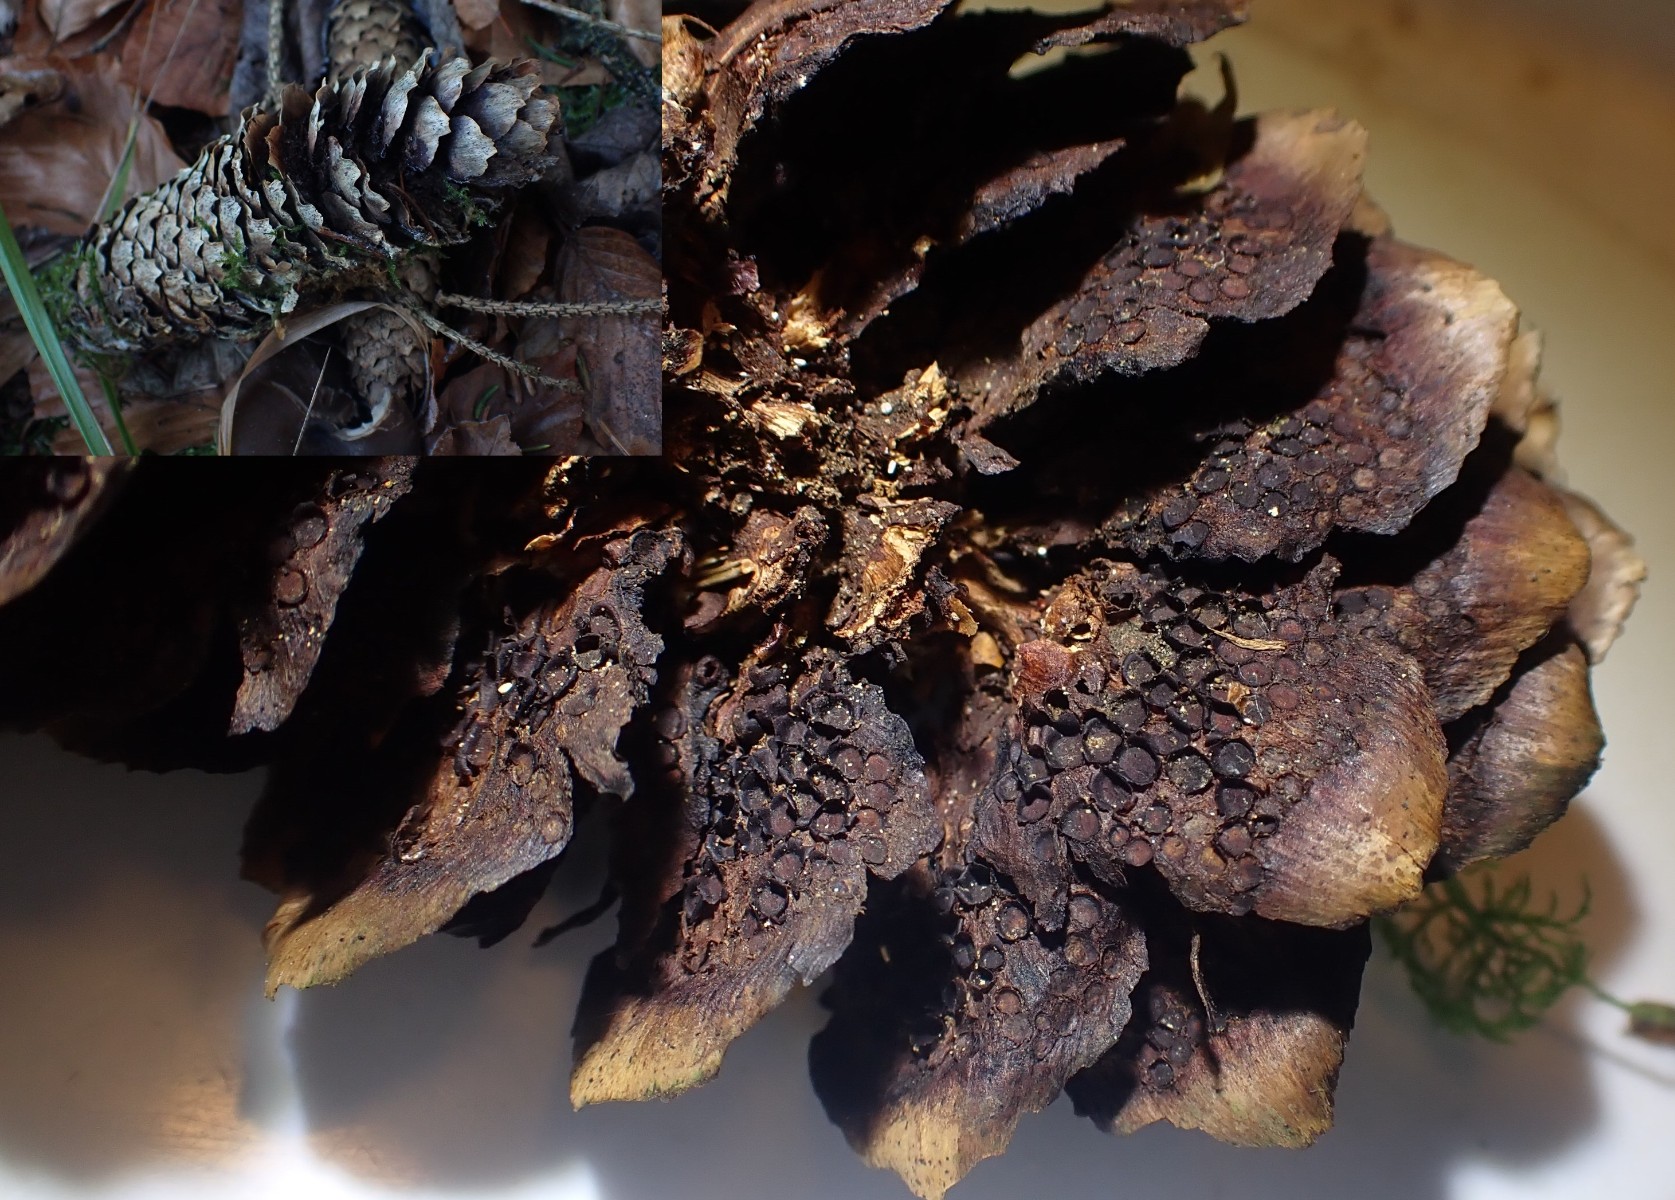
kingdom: Fungi
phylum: Basidiomycota
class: Pucciniomycetes
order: Pucciniales
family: Pucciniastraceae
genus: Thekopsora
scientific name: Thekopsora areolata
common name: grankogle-nålerust
